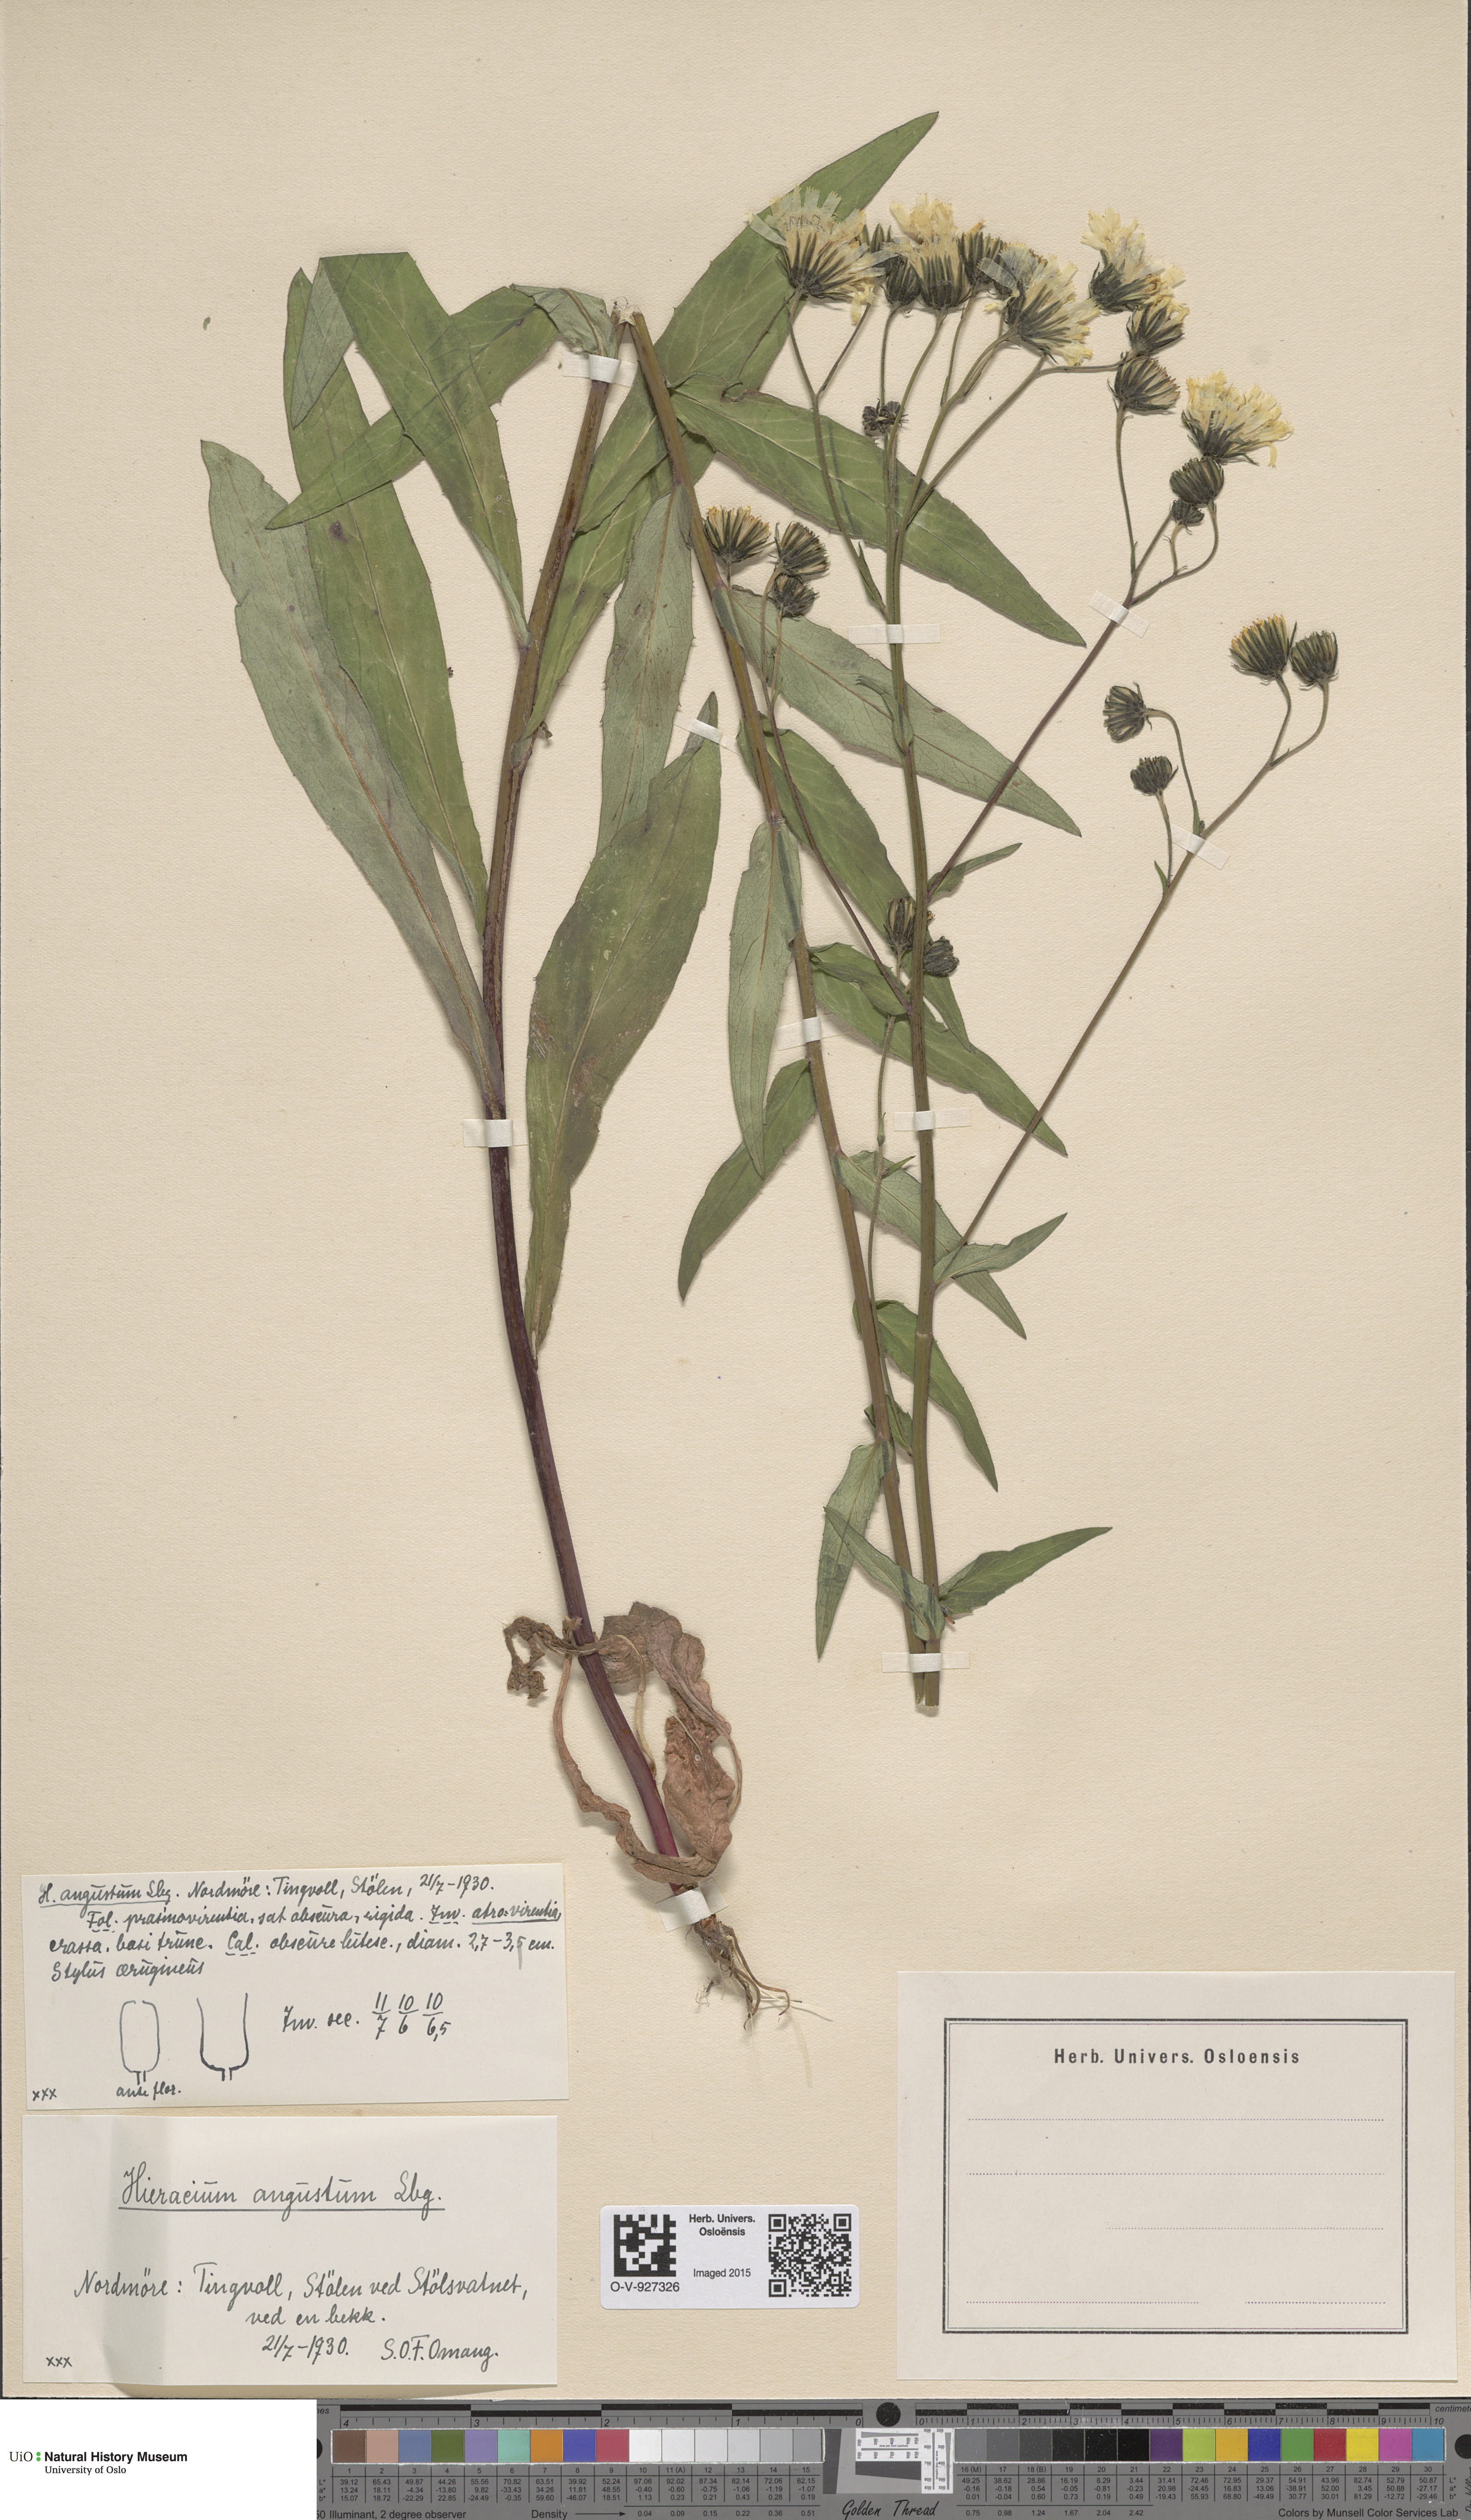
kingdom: Plantae
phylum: Tracheophyta
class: Magnoliopsida
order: Asterales
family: Asteraceae
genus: Hieracium
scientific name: Hieracium angustum
